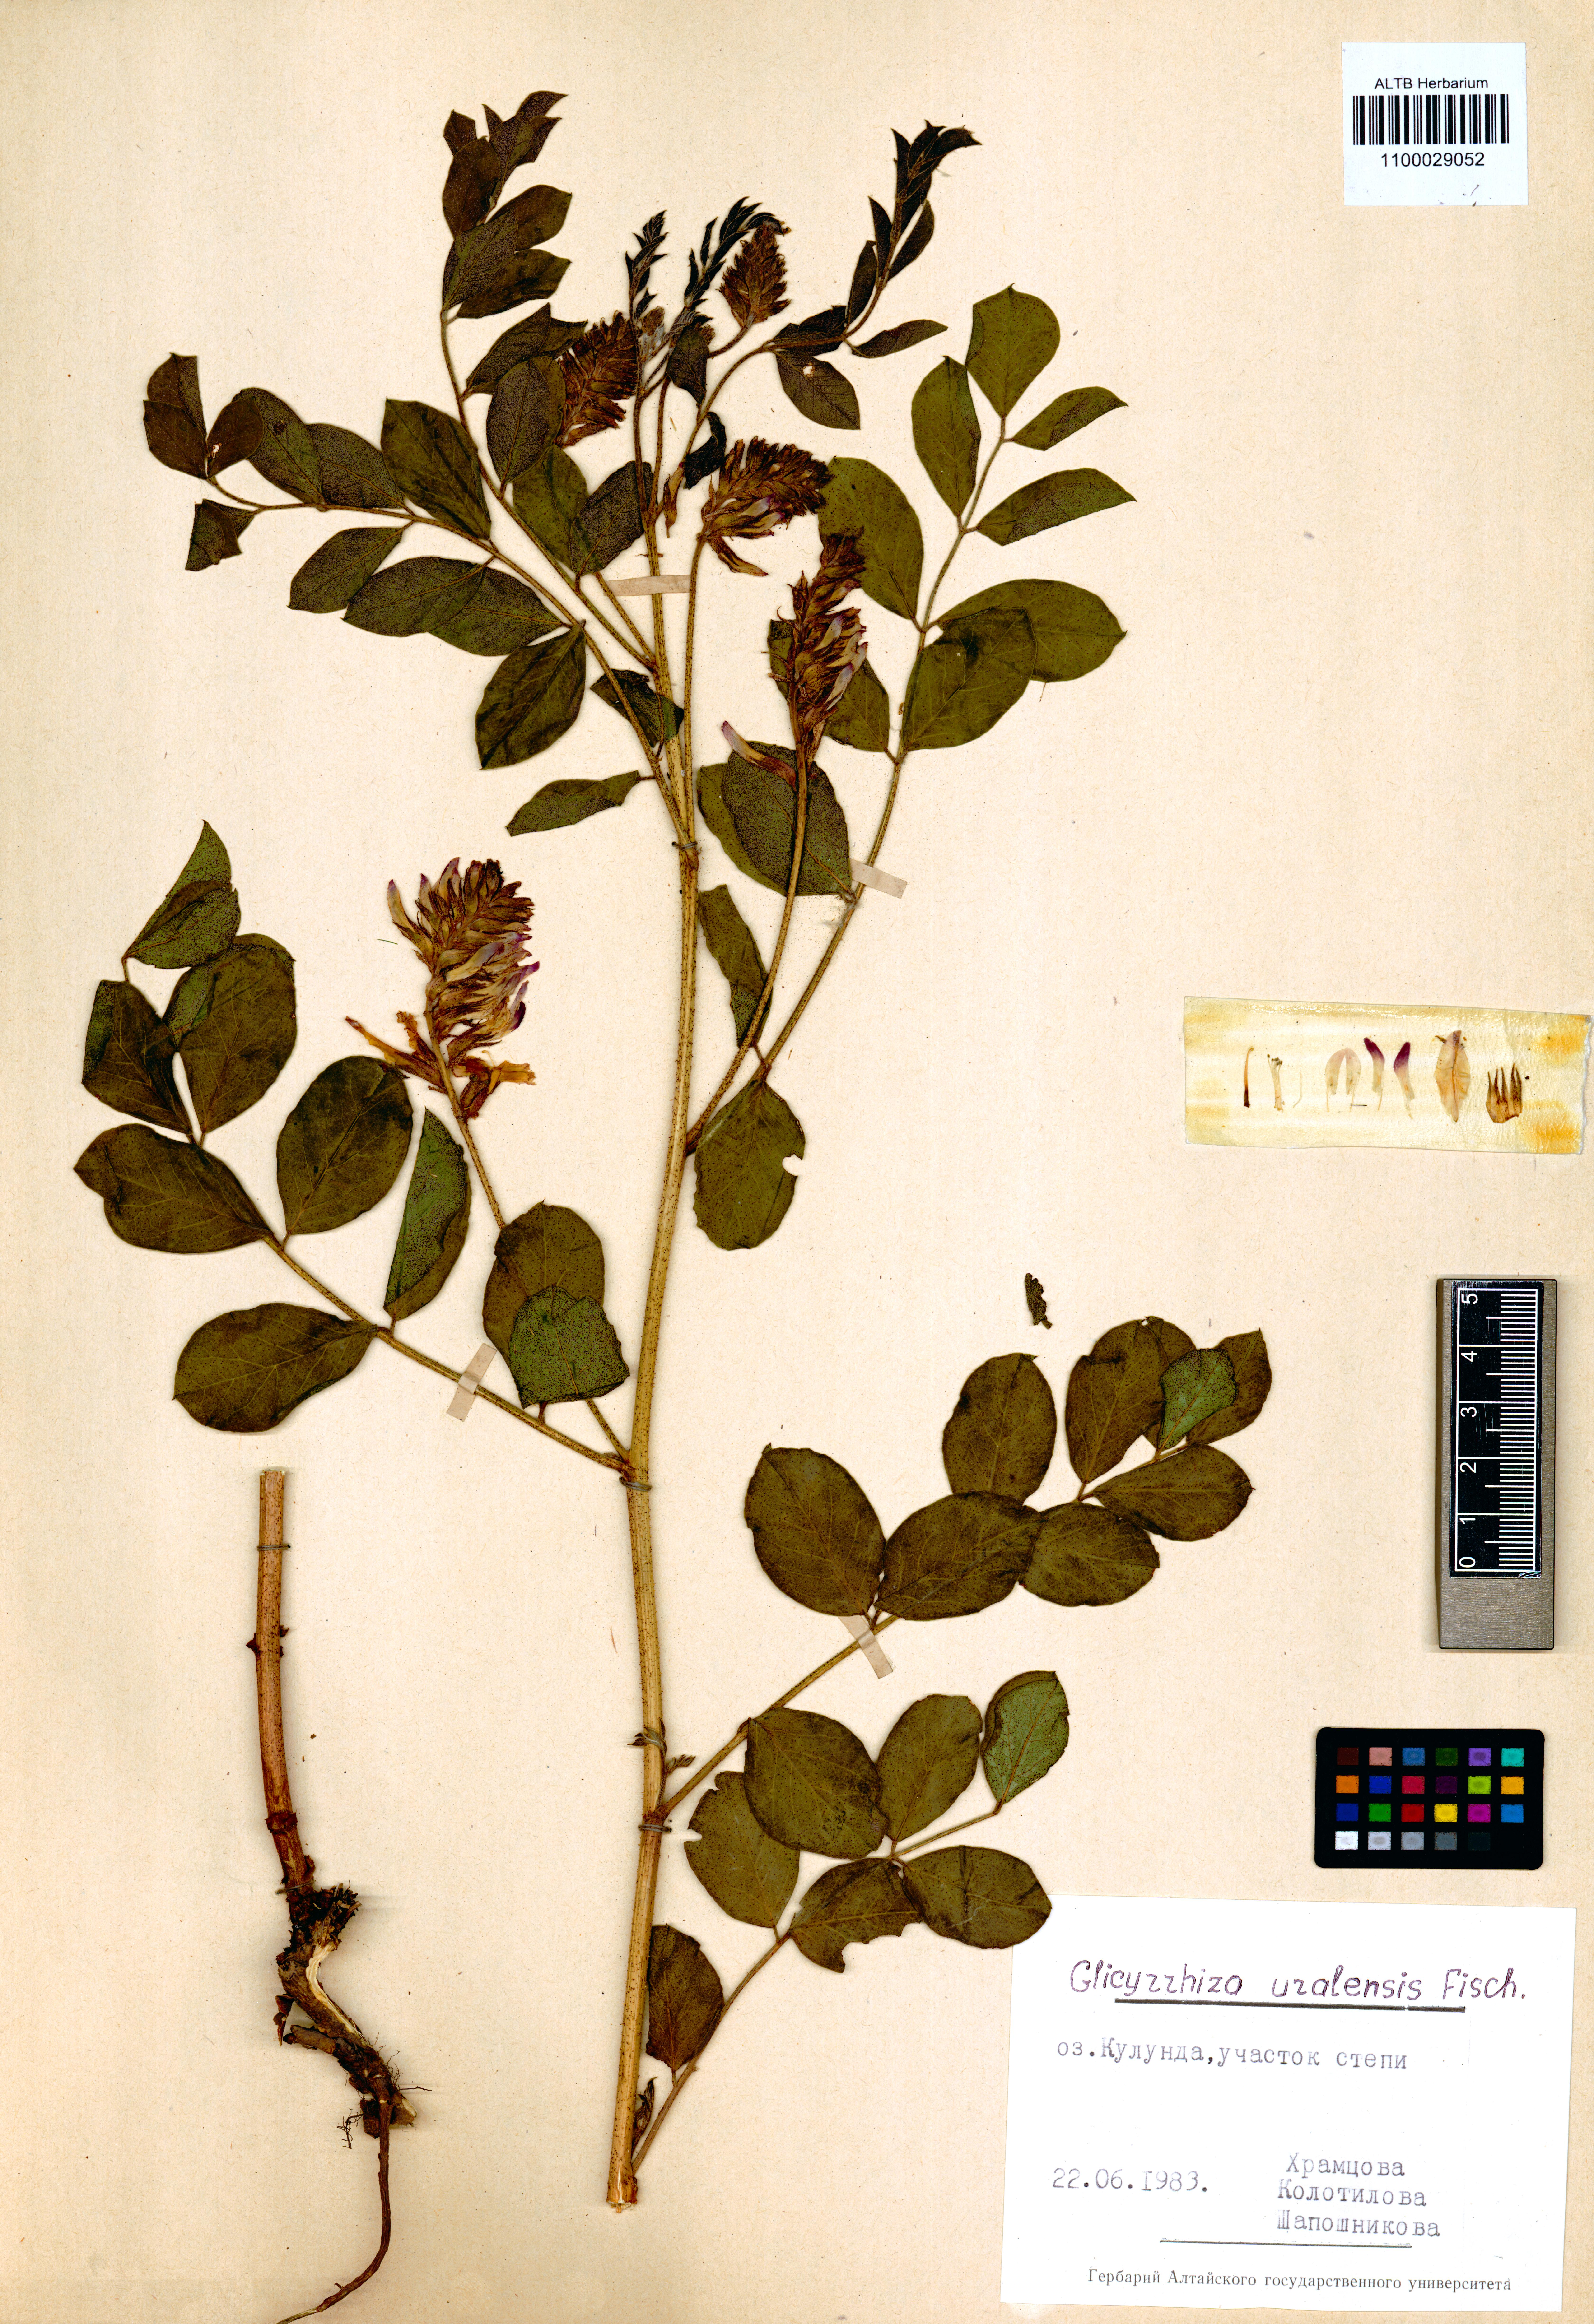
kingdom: Plantae
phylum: Tracheophyta
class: Magnoliopsida
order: Fabales
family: Fabaceae
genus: Glycyrrhiza
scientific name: Glycyrrhiza uralensis
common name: Chinese licorice
